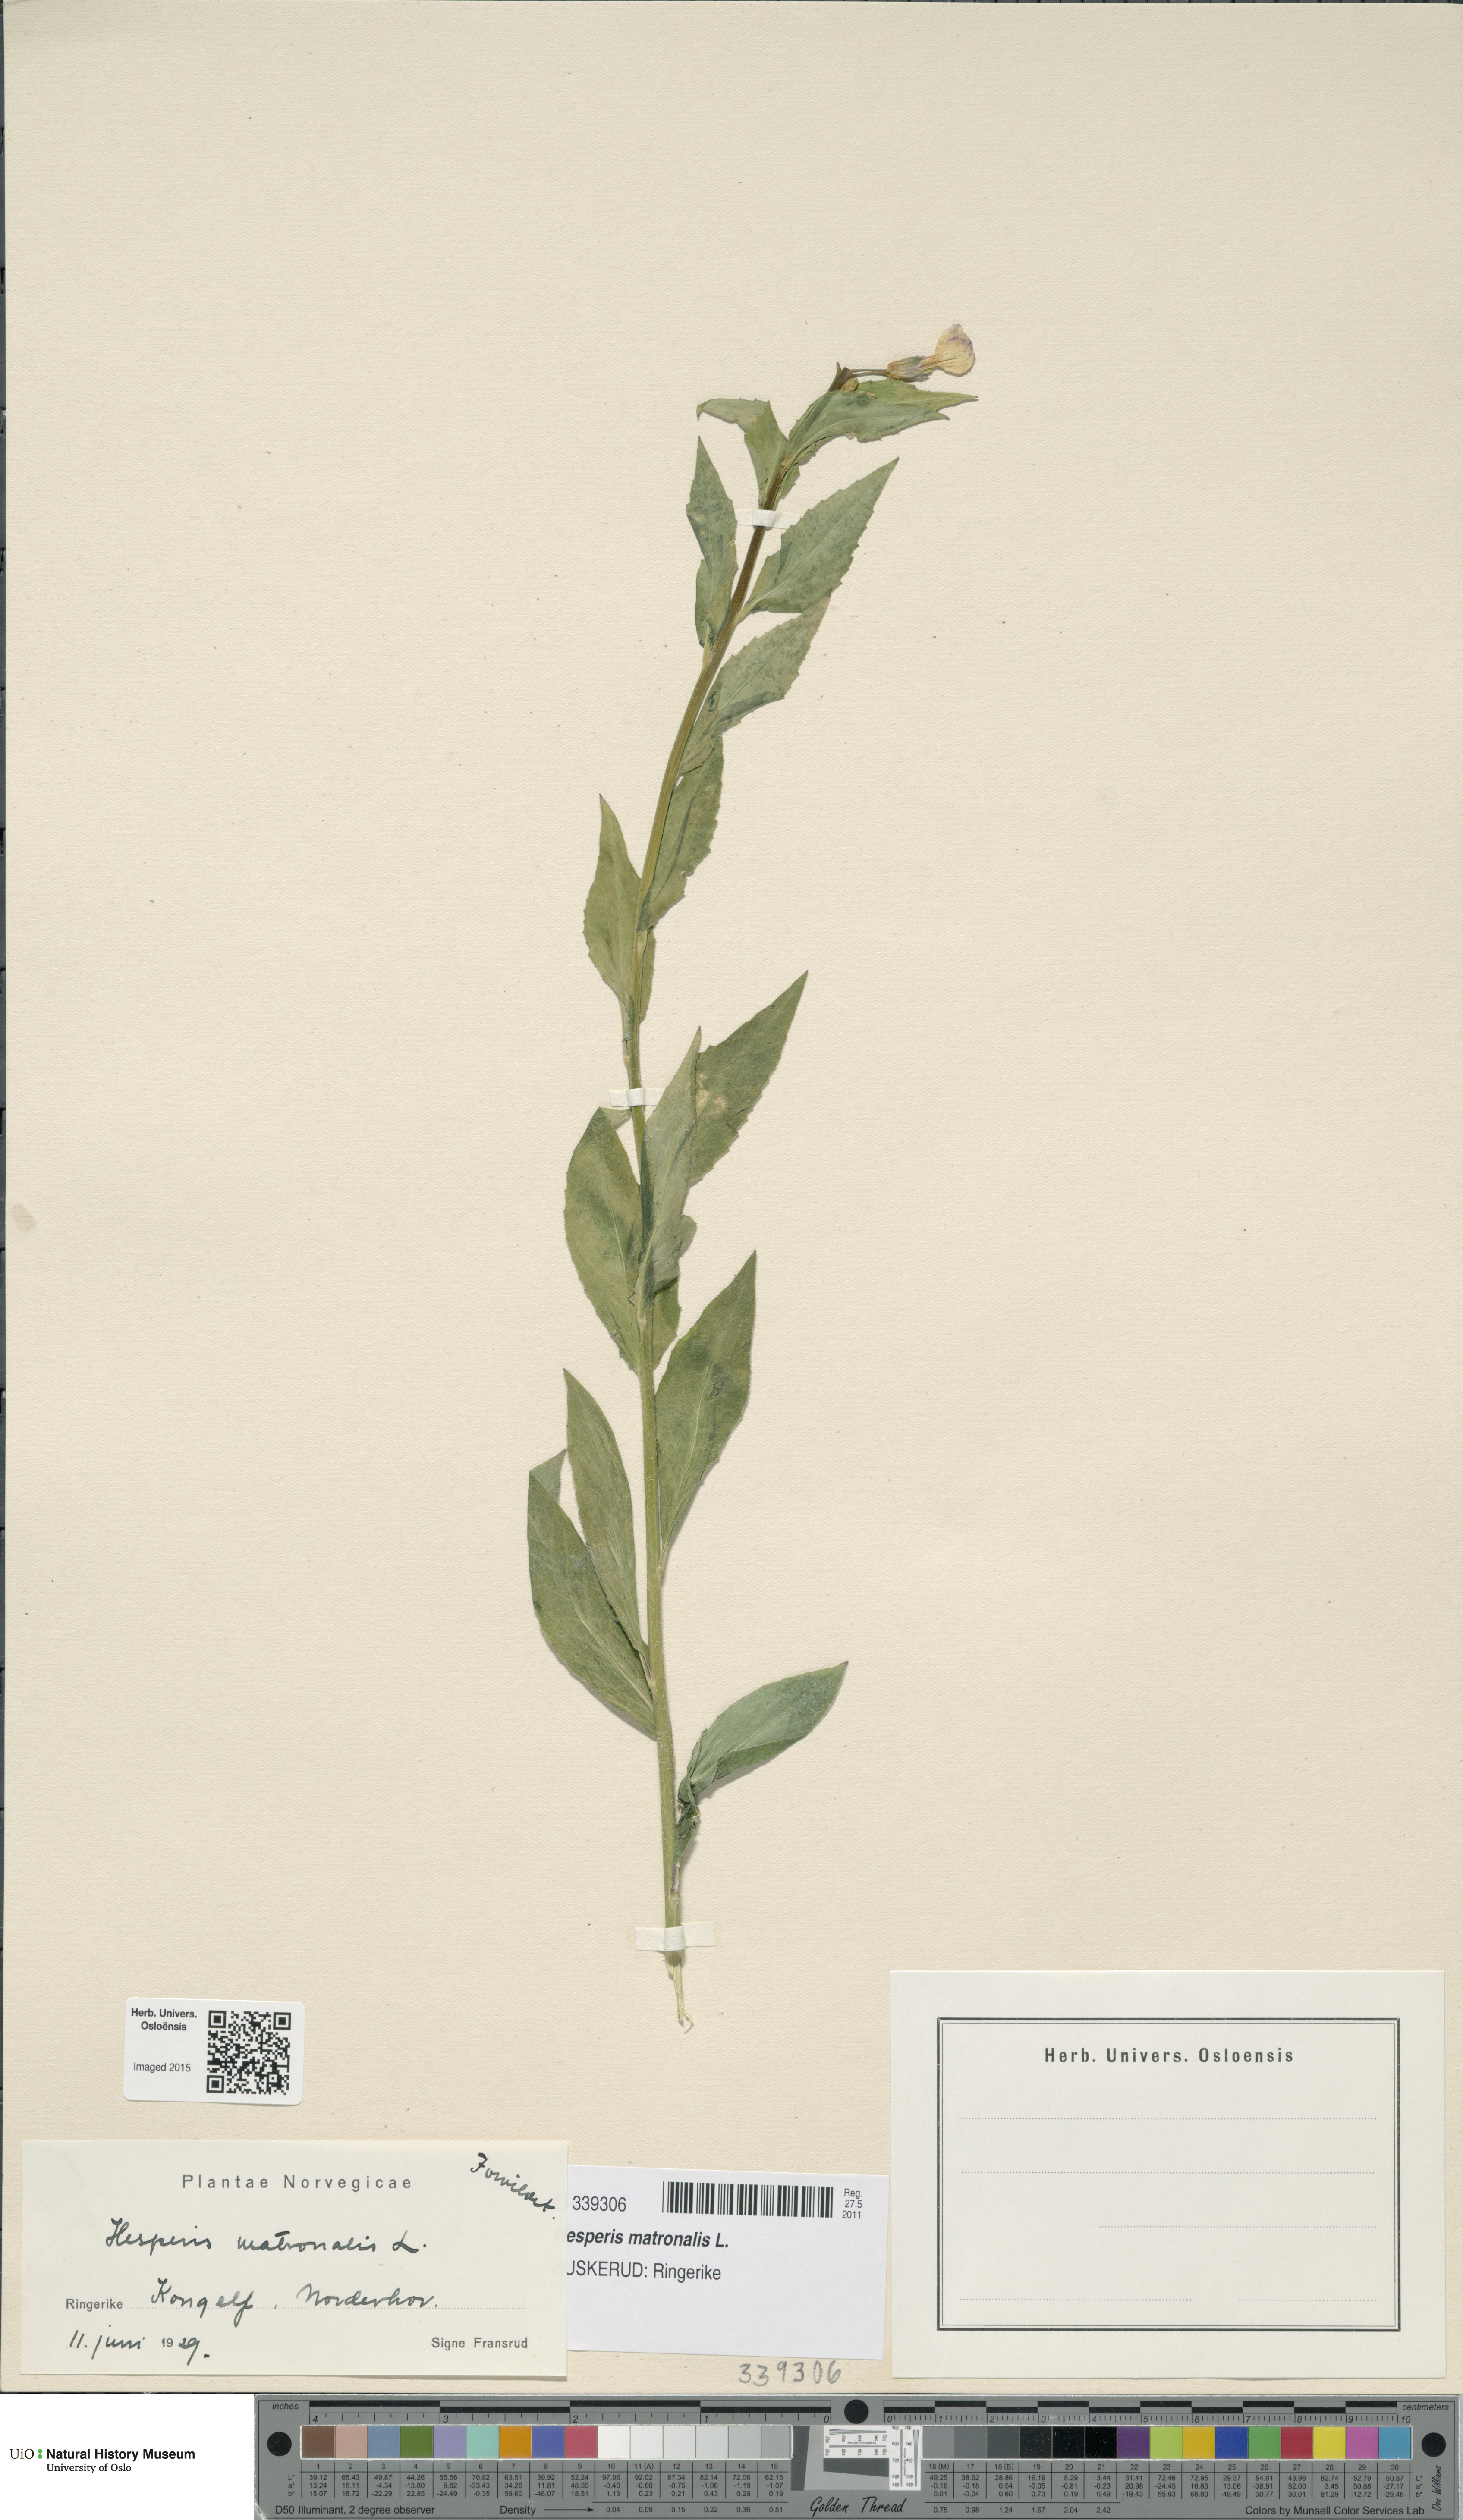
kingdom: Plantae
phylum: Tracheophyta
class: Magnoliopsida
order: Brassicales
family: Brassicaceae
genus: Hesperis
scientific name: Hesperis matronalis
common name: Dame's-violet
